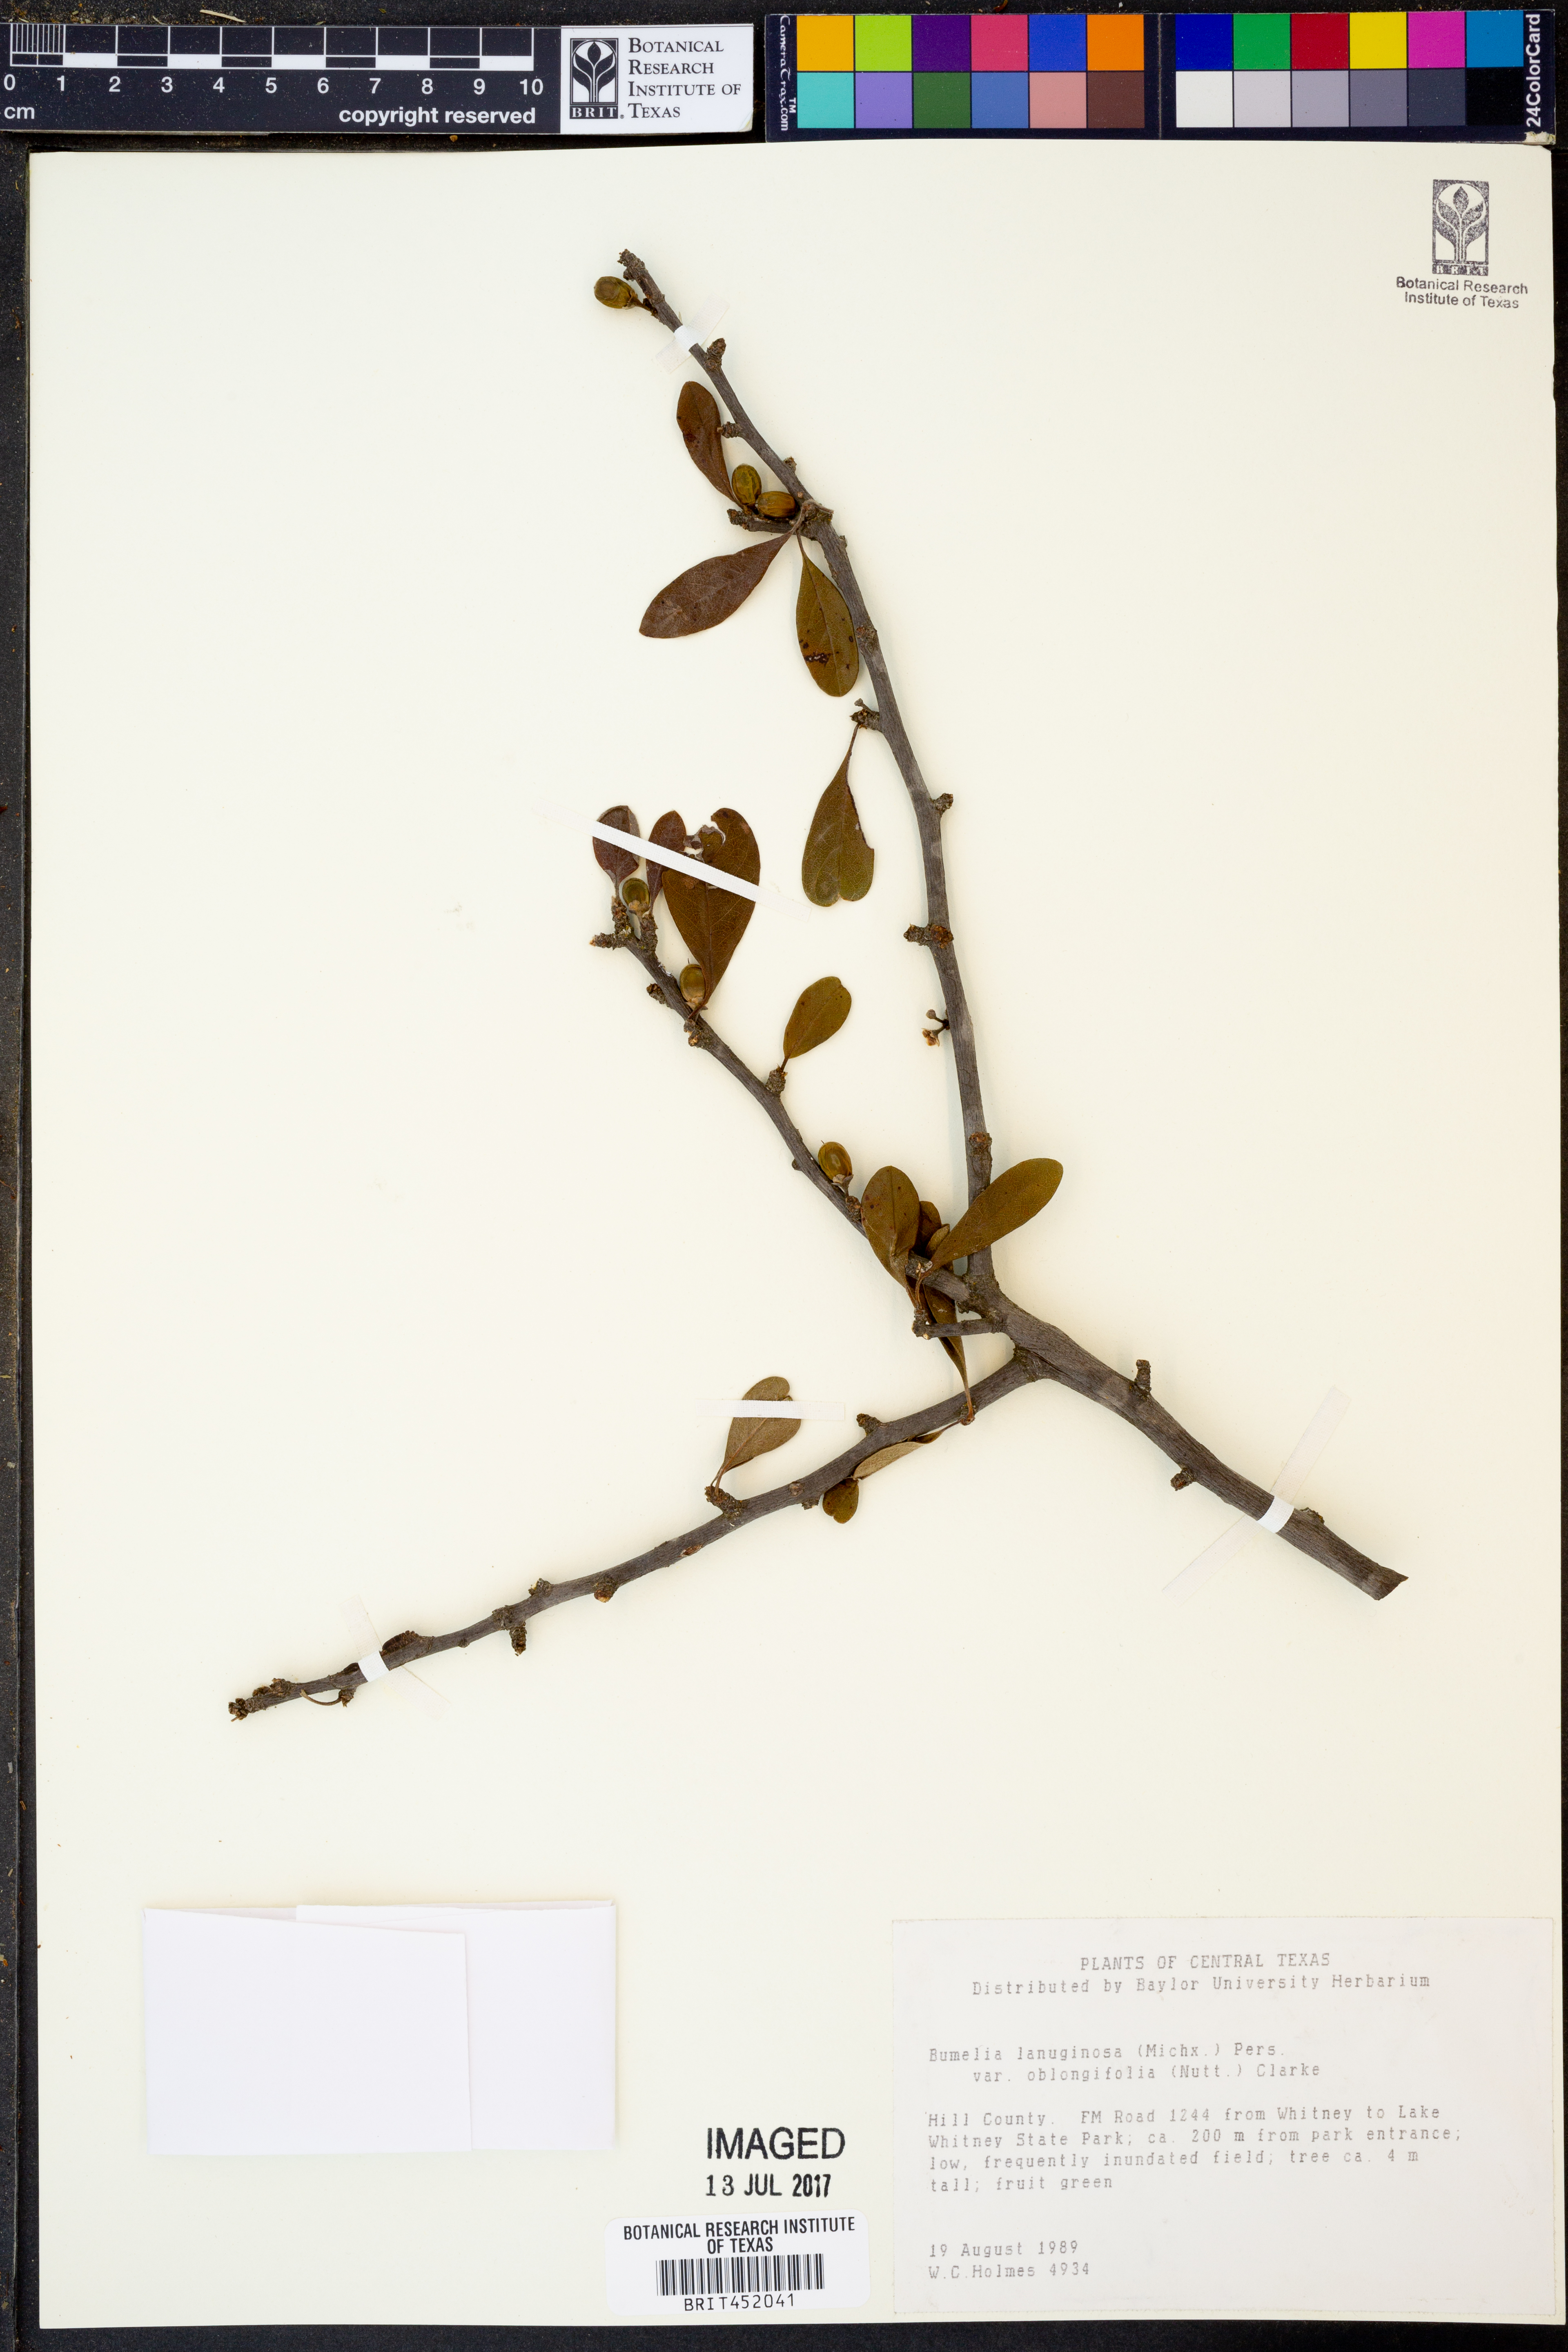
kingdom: Plantae
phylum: Tracheophyta
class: Magnoliopsida
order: Ericales
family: Sapotaceae
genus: Sideroxylon
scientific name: Sideroxylon lanuginosum
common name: Chittamwood
